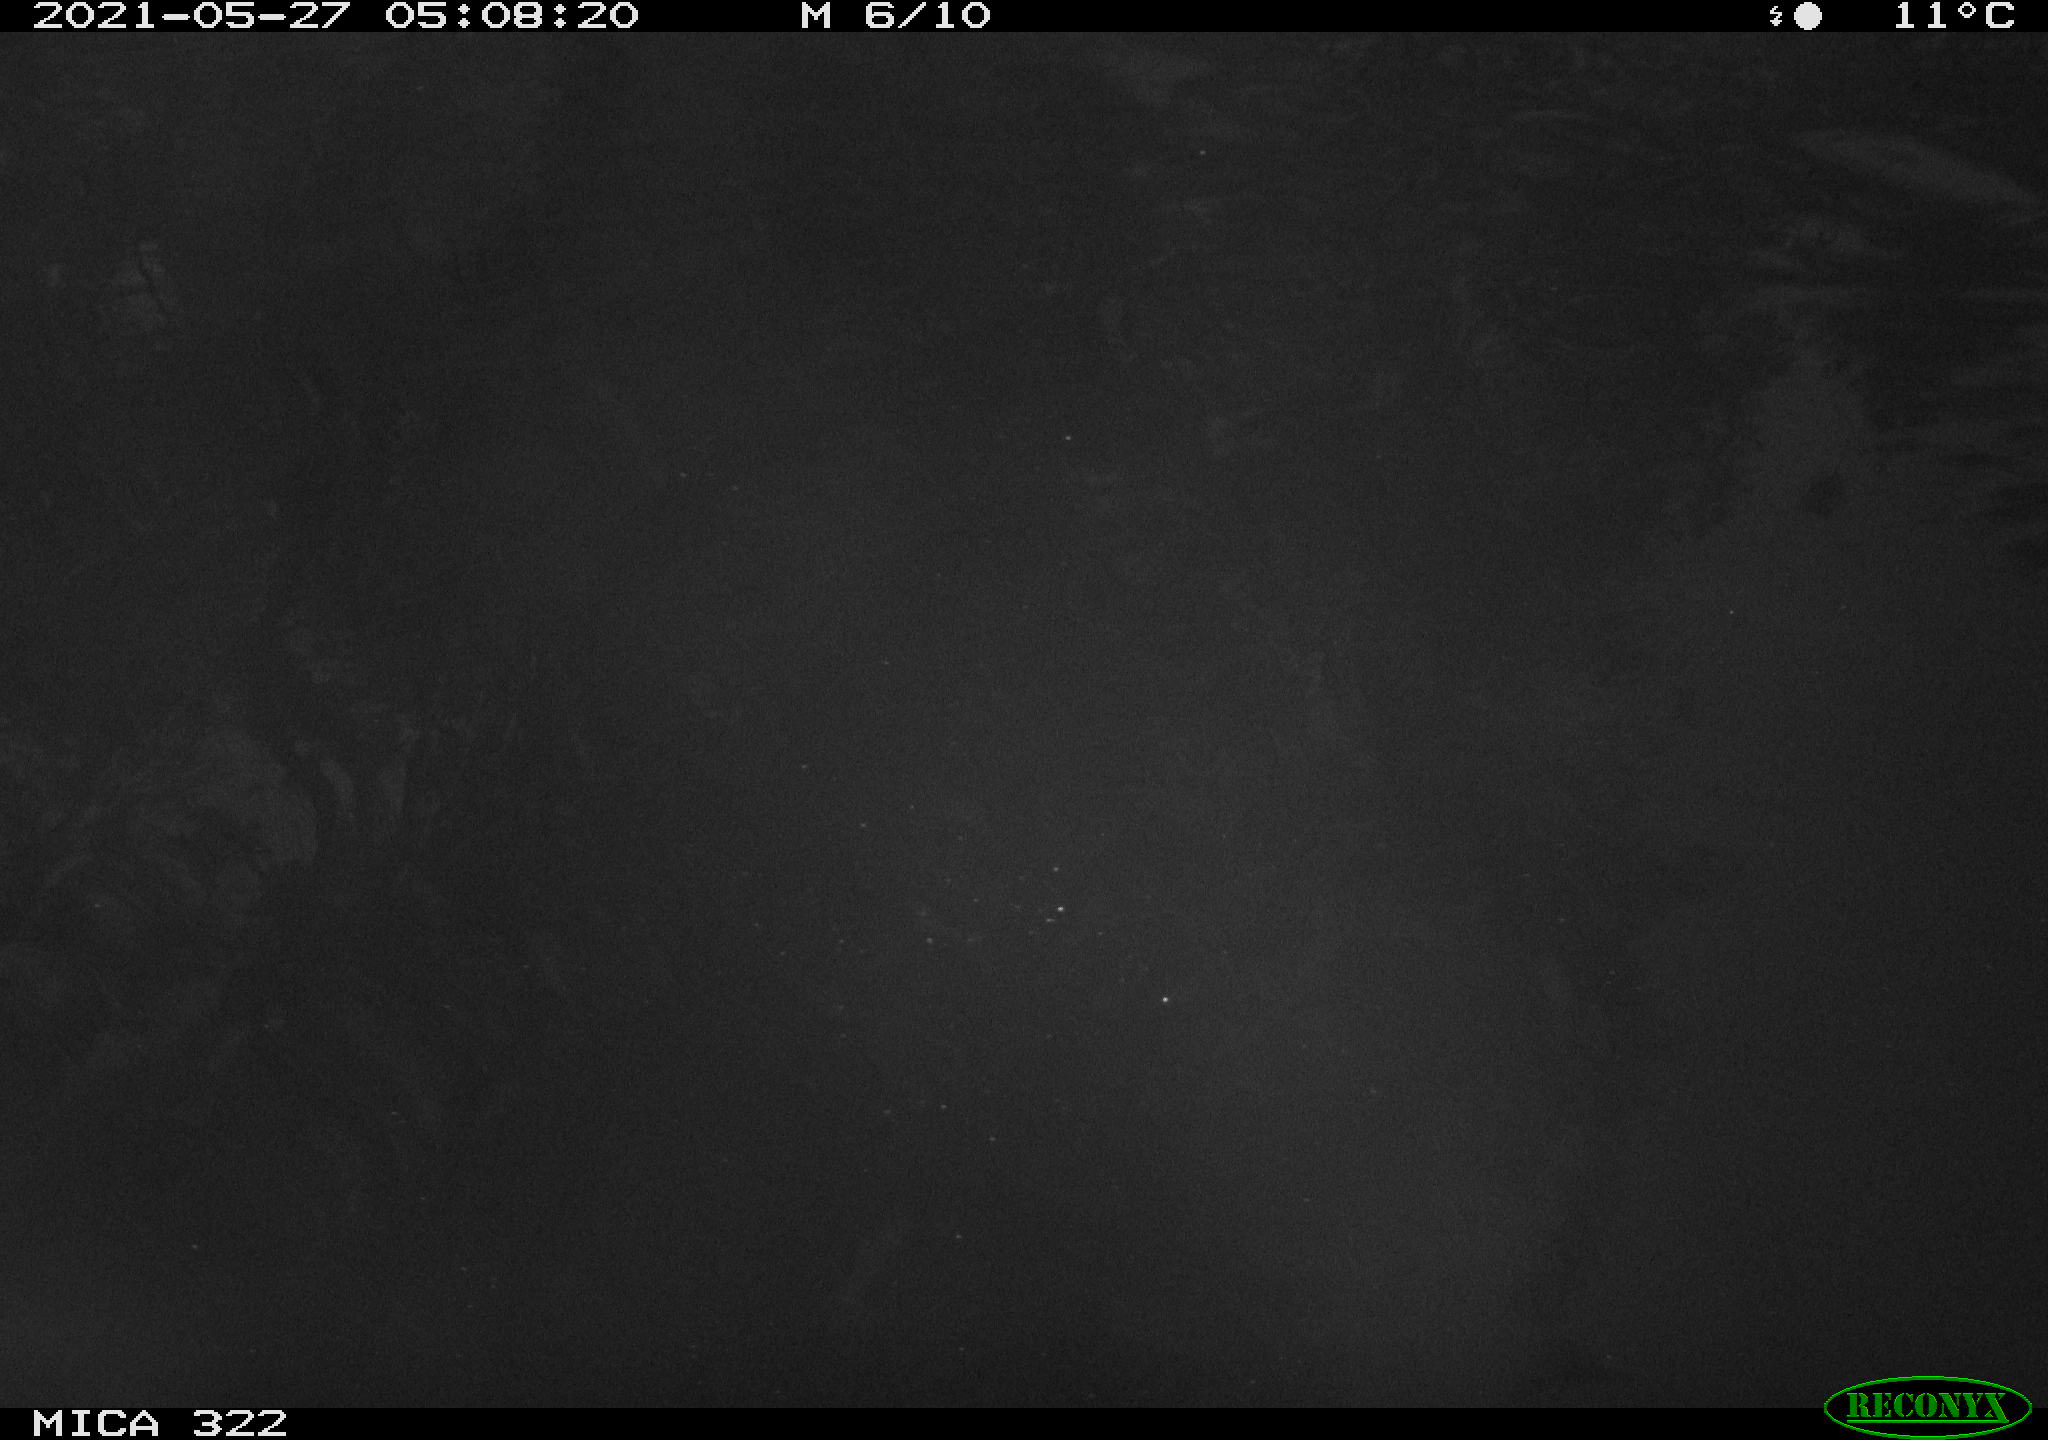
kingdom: Animalia
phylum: Chordata
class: Aves
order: Gruiformes
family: Rallidae
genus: Gallinula
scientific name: Gallinula chloropus
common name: Common moorhen
